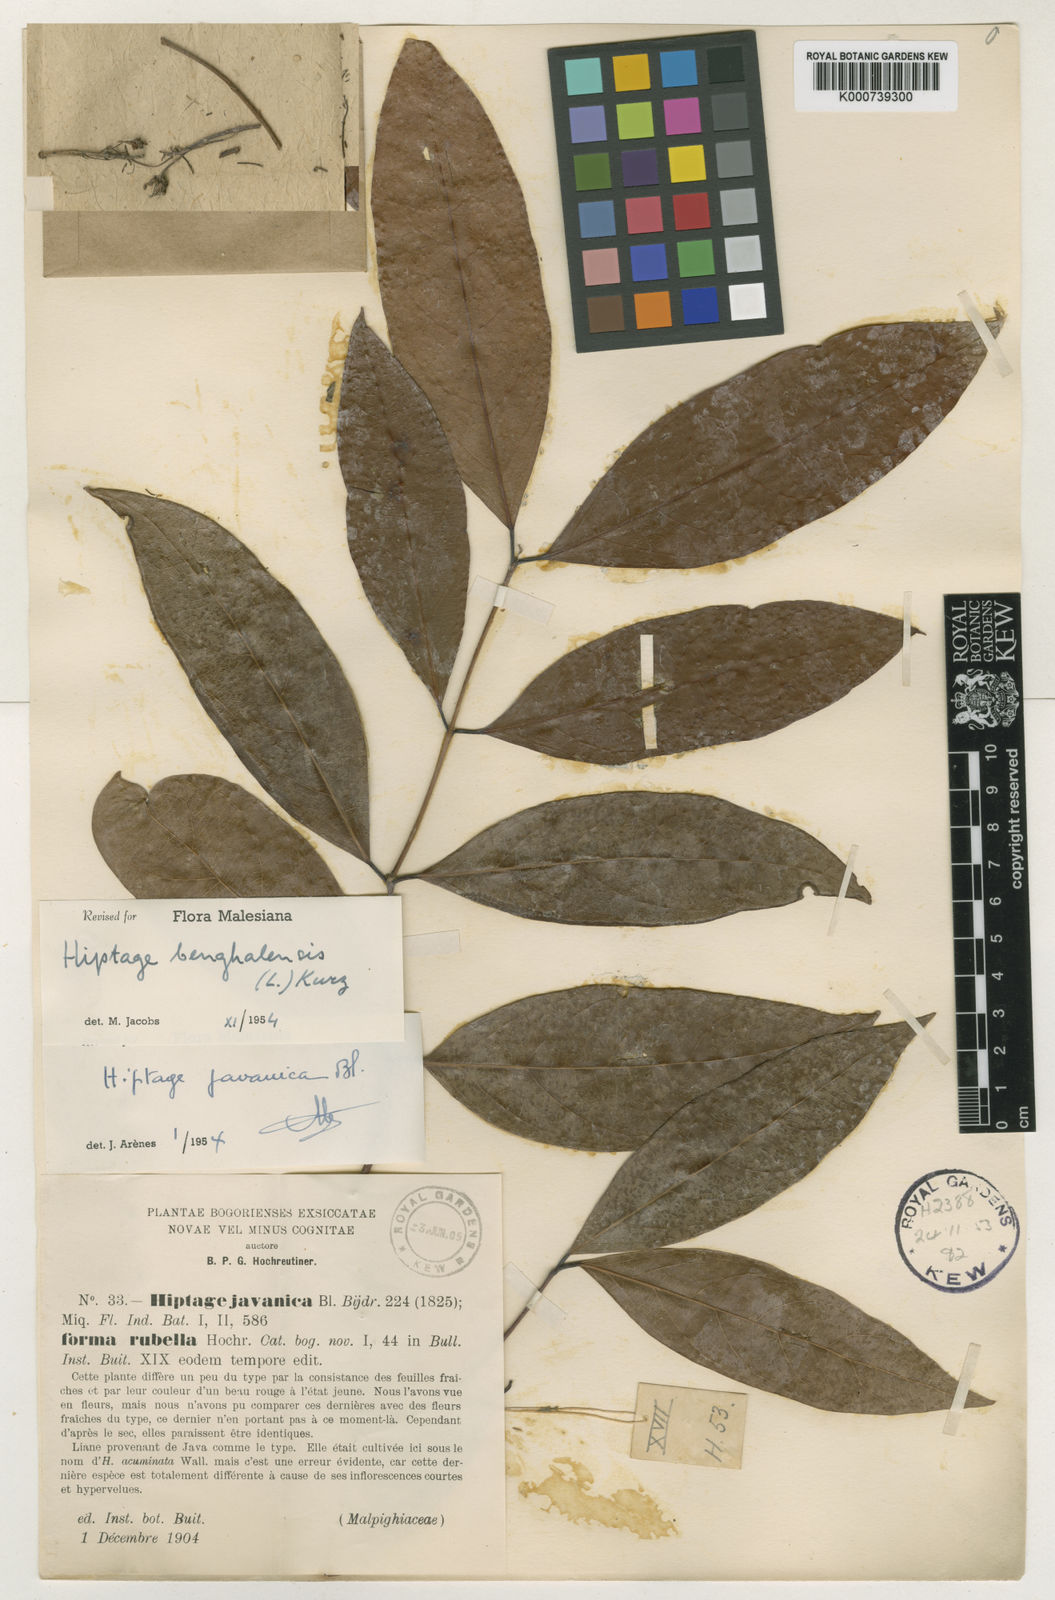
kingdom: Plantae
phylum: Tracheophyta
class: Magnoliopsida
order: Malpighiales
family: Malpighiaceae
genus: Hiptage
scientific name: Hiptage benghalensis
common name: Hiptage
